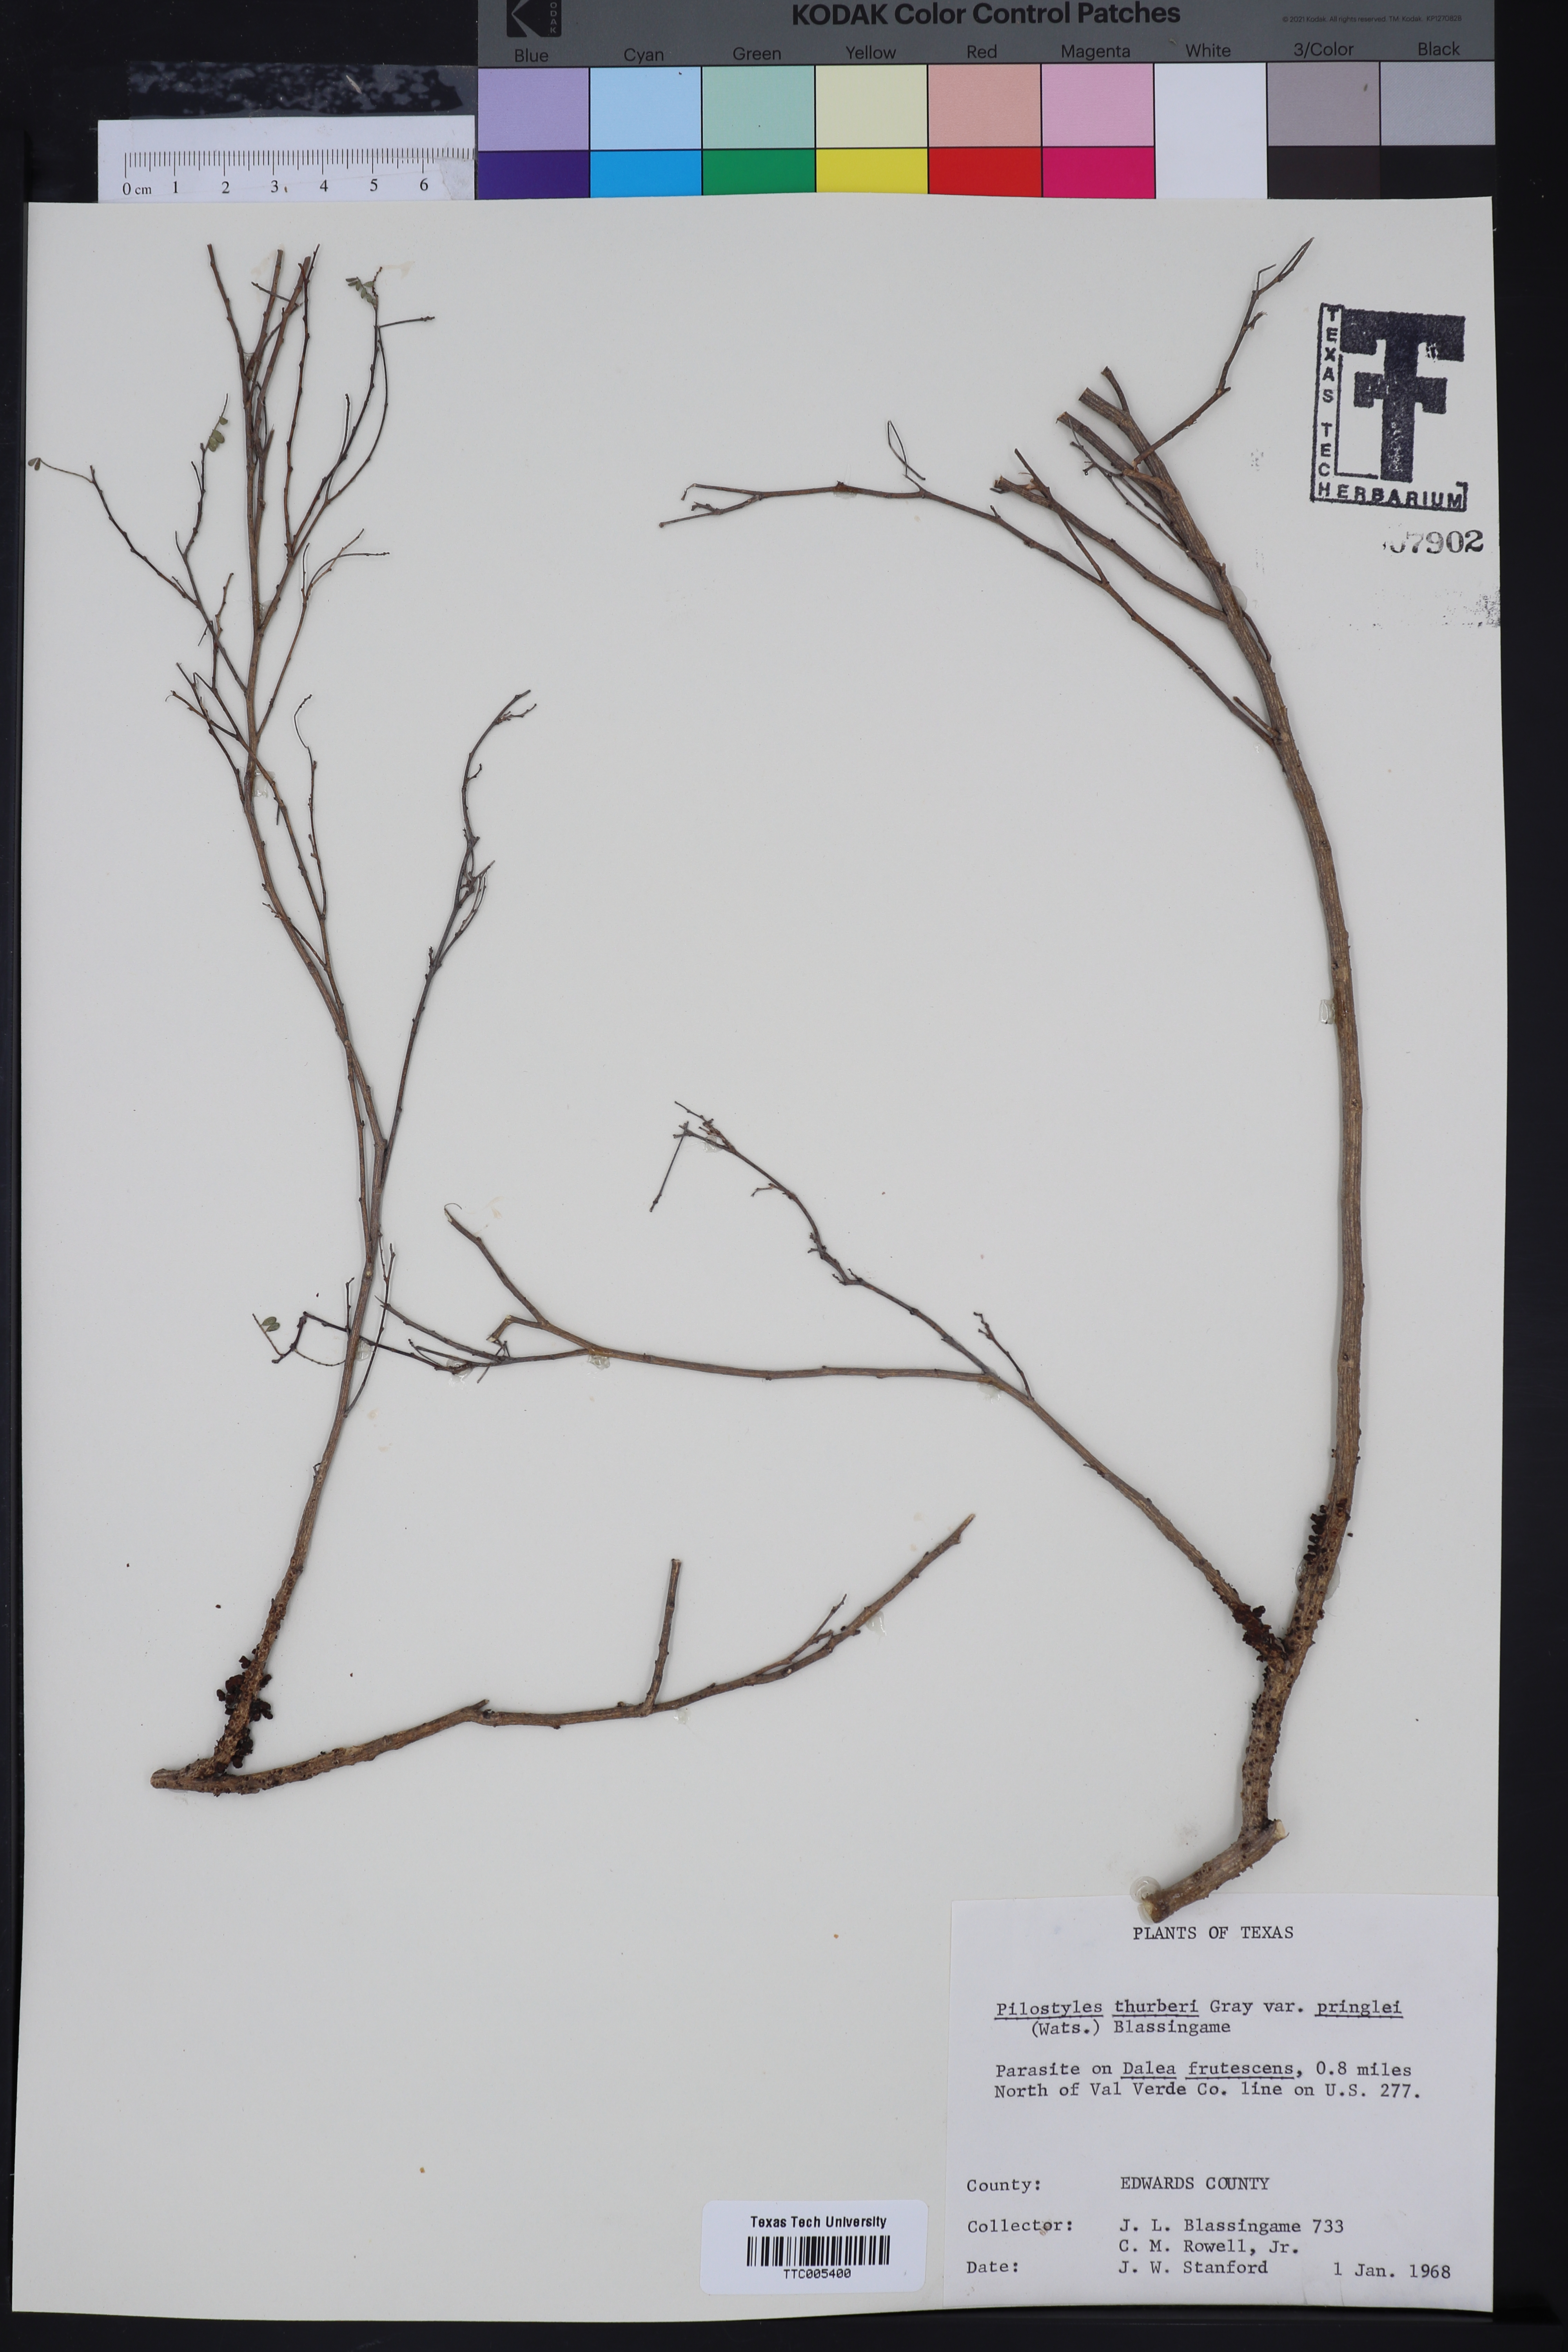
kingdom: Plantae
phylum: Tracheophyta
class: Magnoliopsida
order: Cucurbitales
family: Apodanthaceae
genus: Pilostyles
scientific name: Pilostyles thurberi
